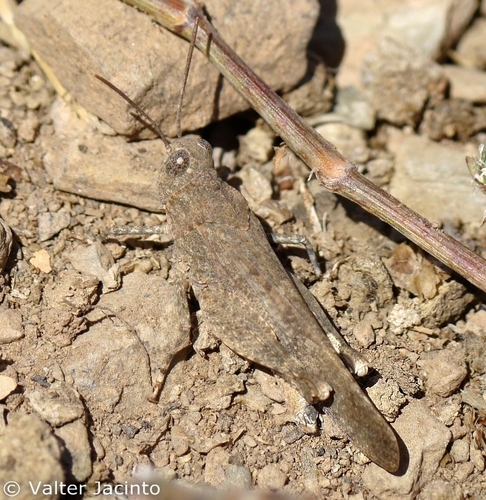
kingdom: Animalia
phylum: Arthropoda
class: Insecta
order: Orthoptera
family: Acrididae
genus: Oedipoda
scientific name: Oedipoda coerulea
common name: Iberian band-winged grasshopper
